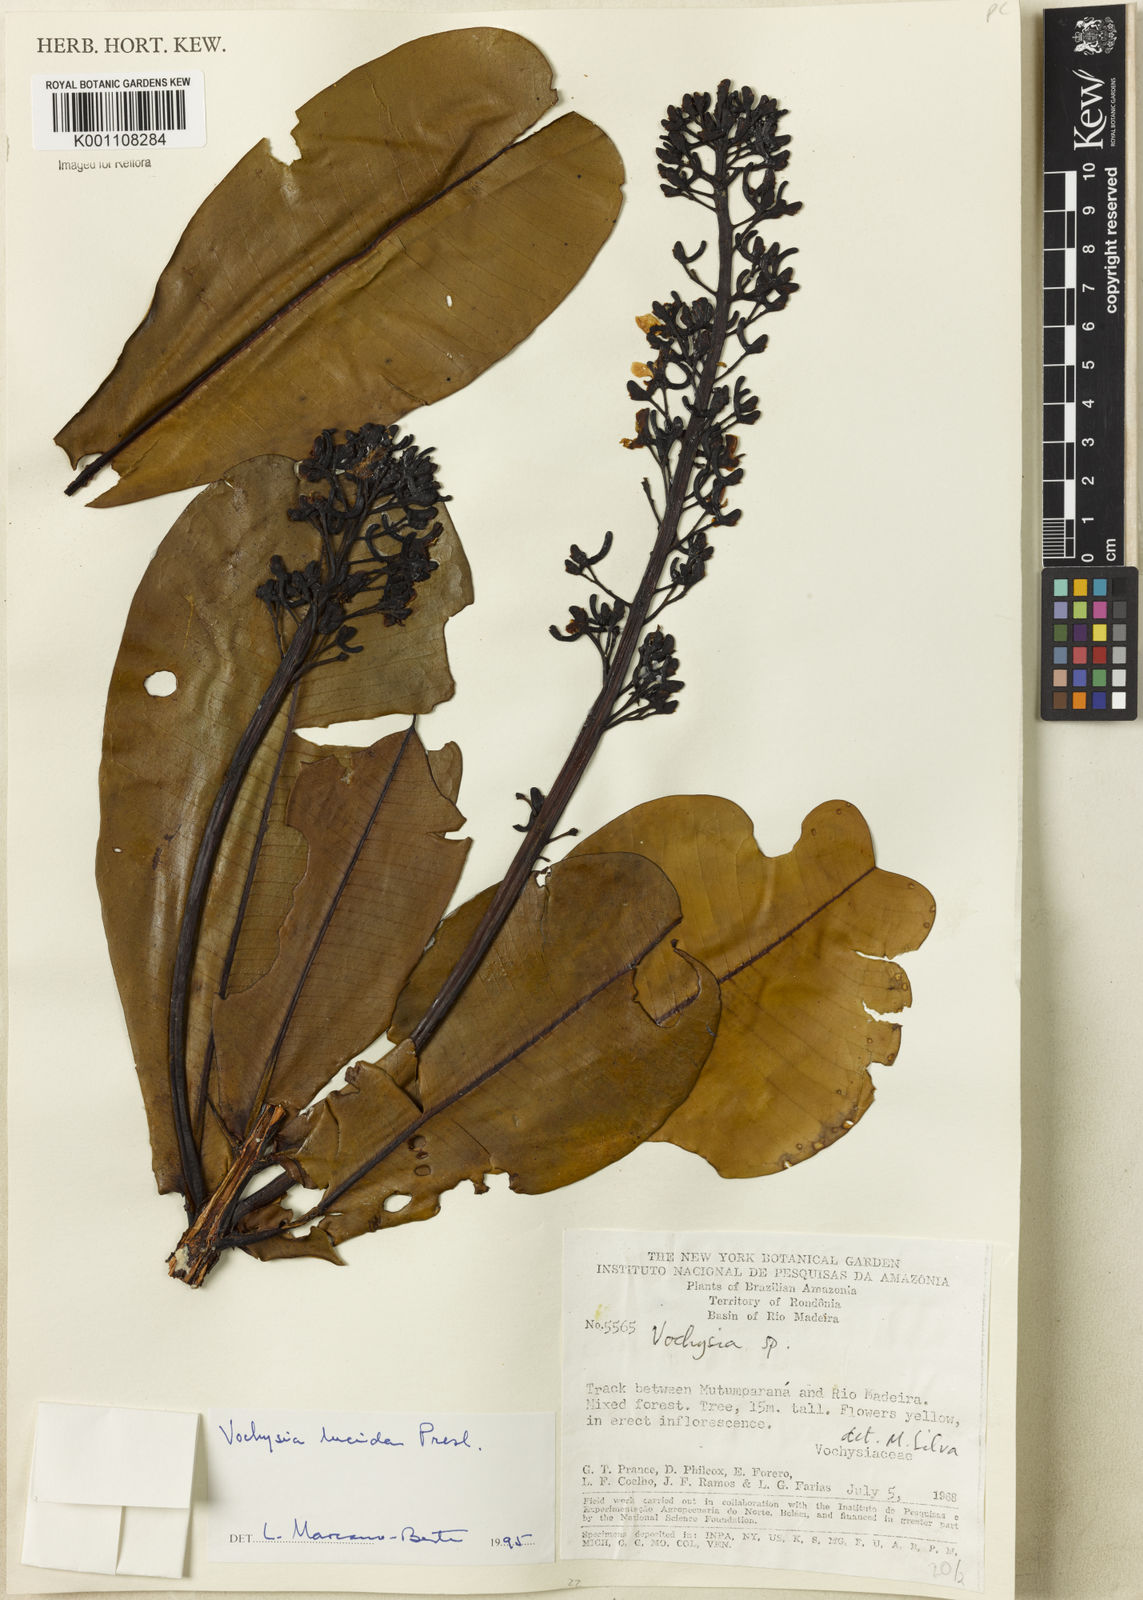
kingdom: Plantae
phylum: Tracheophyta
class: Magnoliopsida
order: Myrtales
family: Vochysiaceae
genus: Vochysia
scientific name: Vochysia lucida
